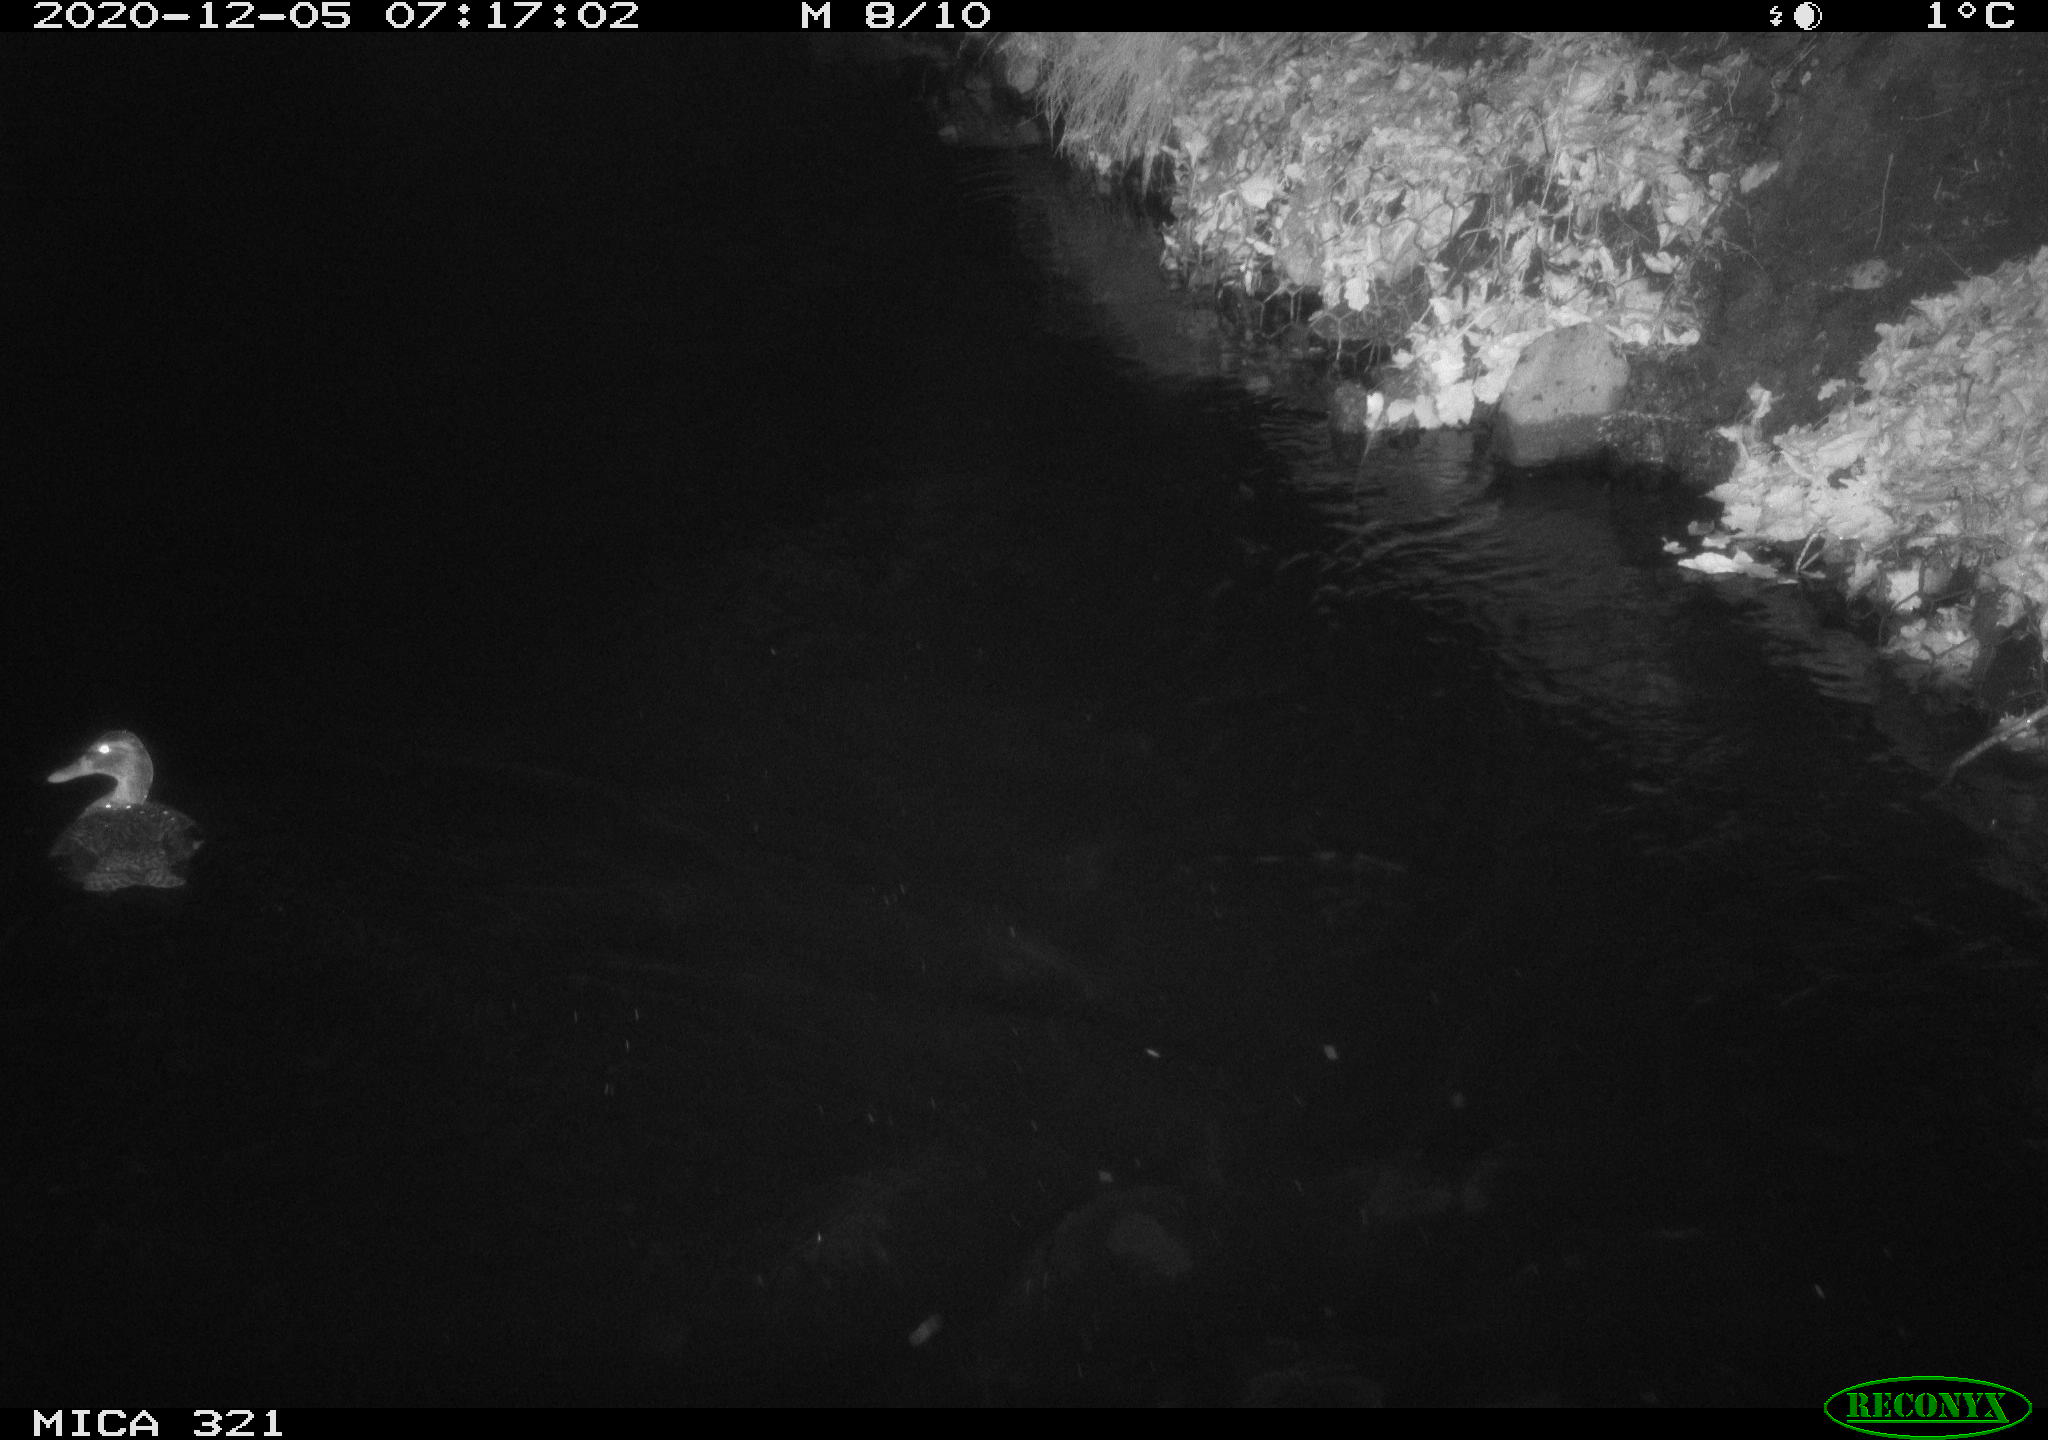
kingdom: Animalia
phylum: Chordata
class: Aves
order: Anseriformes
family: Anatidae
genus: Anas
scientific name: Anas platyrhynchos
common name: Mallard
